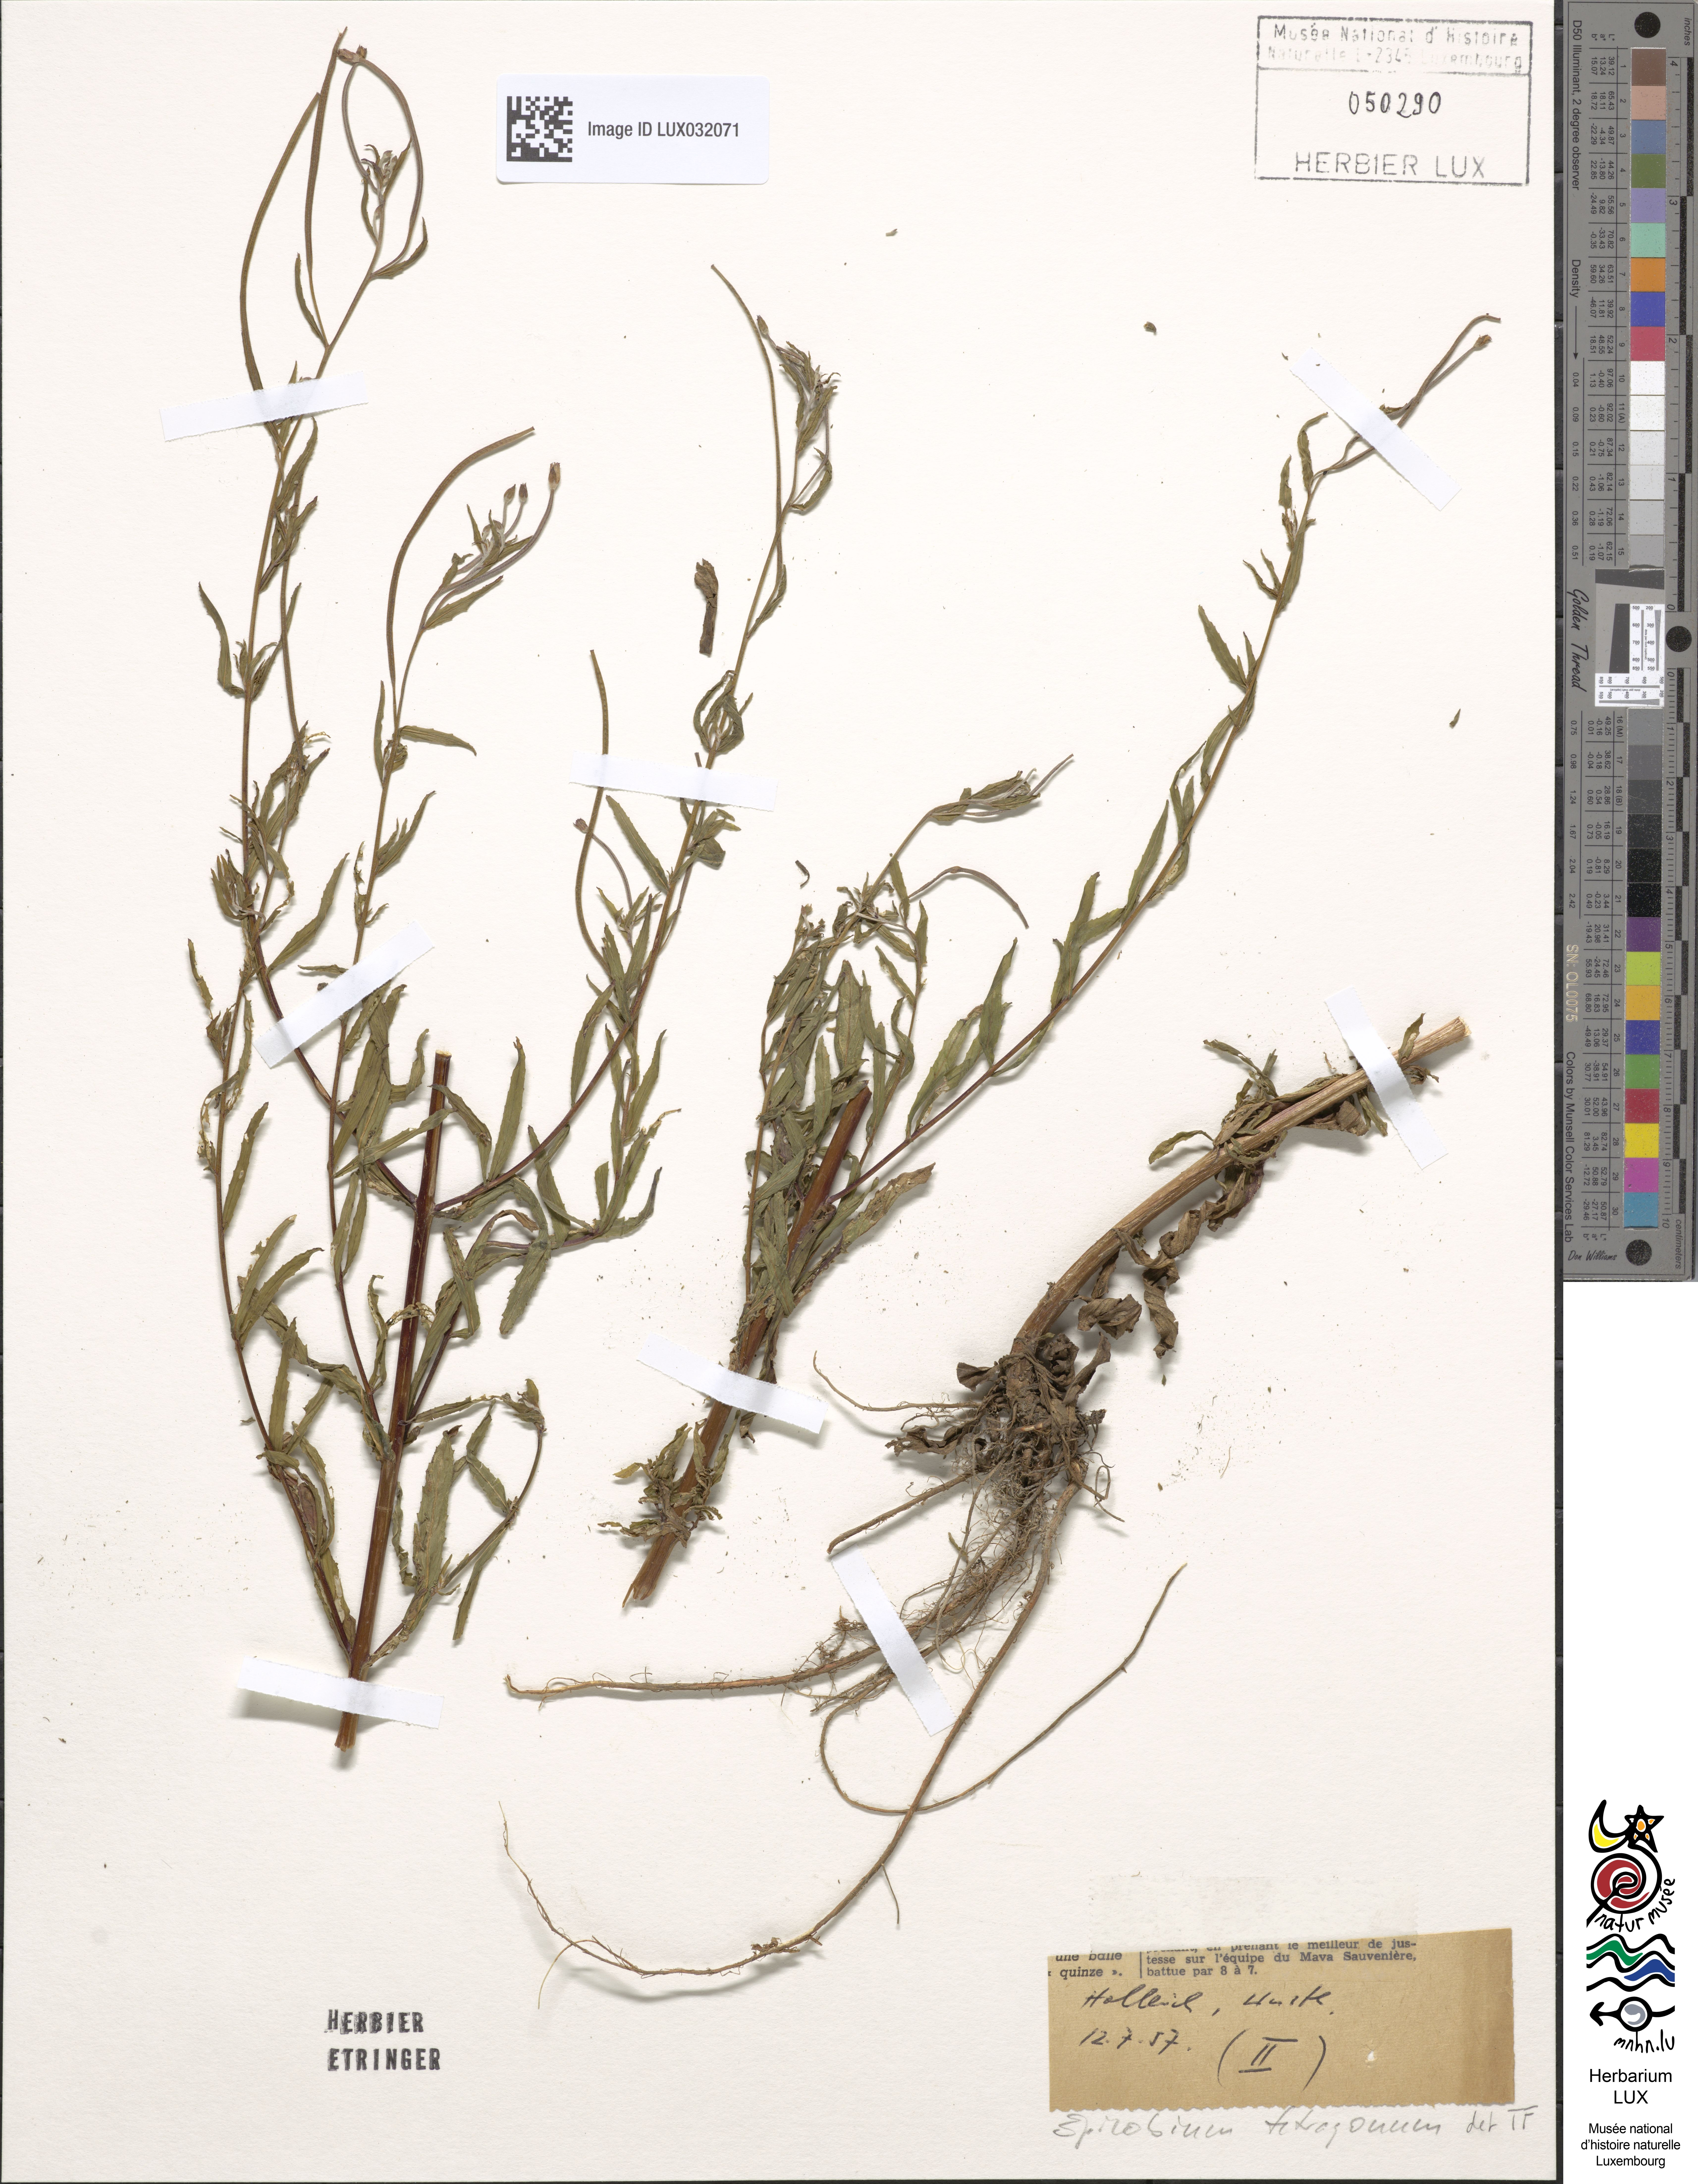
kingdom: Plantae
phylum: Tracheophyta
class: Magnoliopsida
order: Myrtales
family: Onagraceae
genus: Epilobium
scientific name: Epilobium tetragonum
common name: Square-stemmed willowherb
